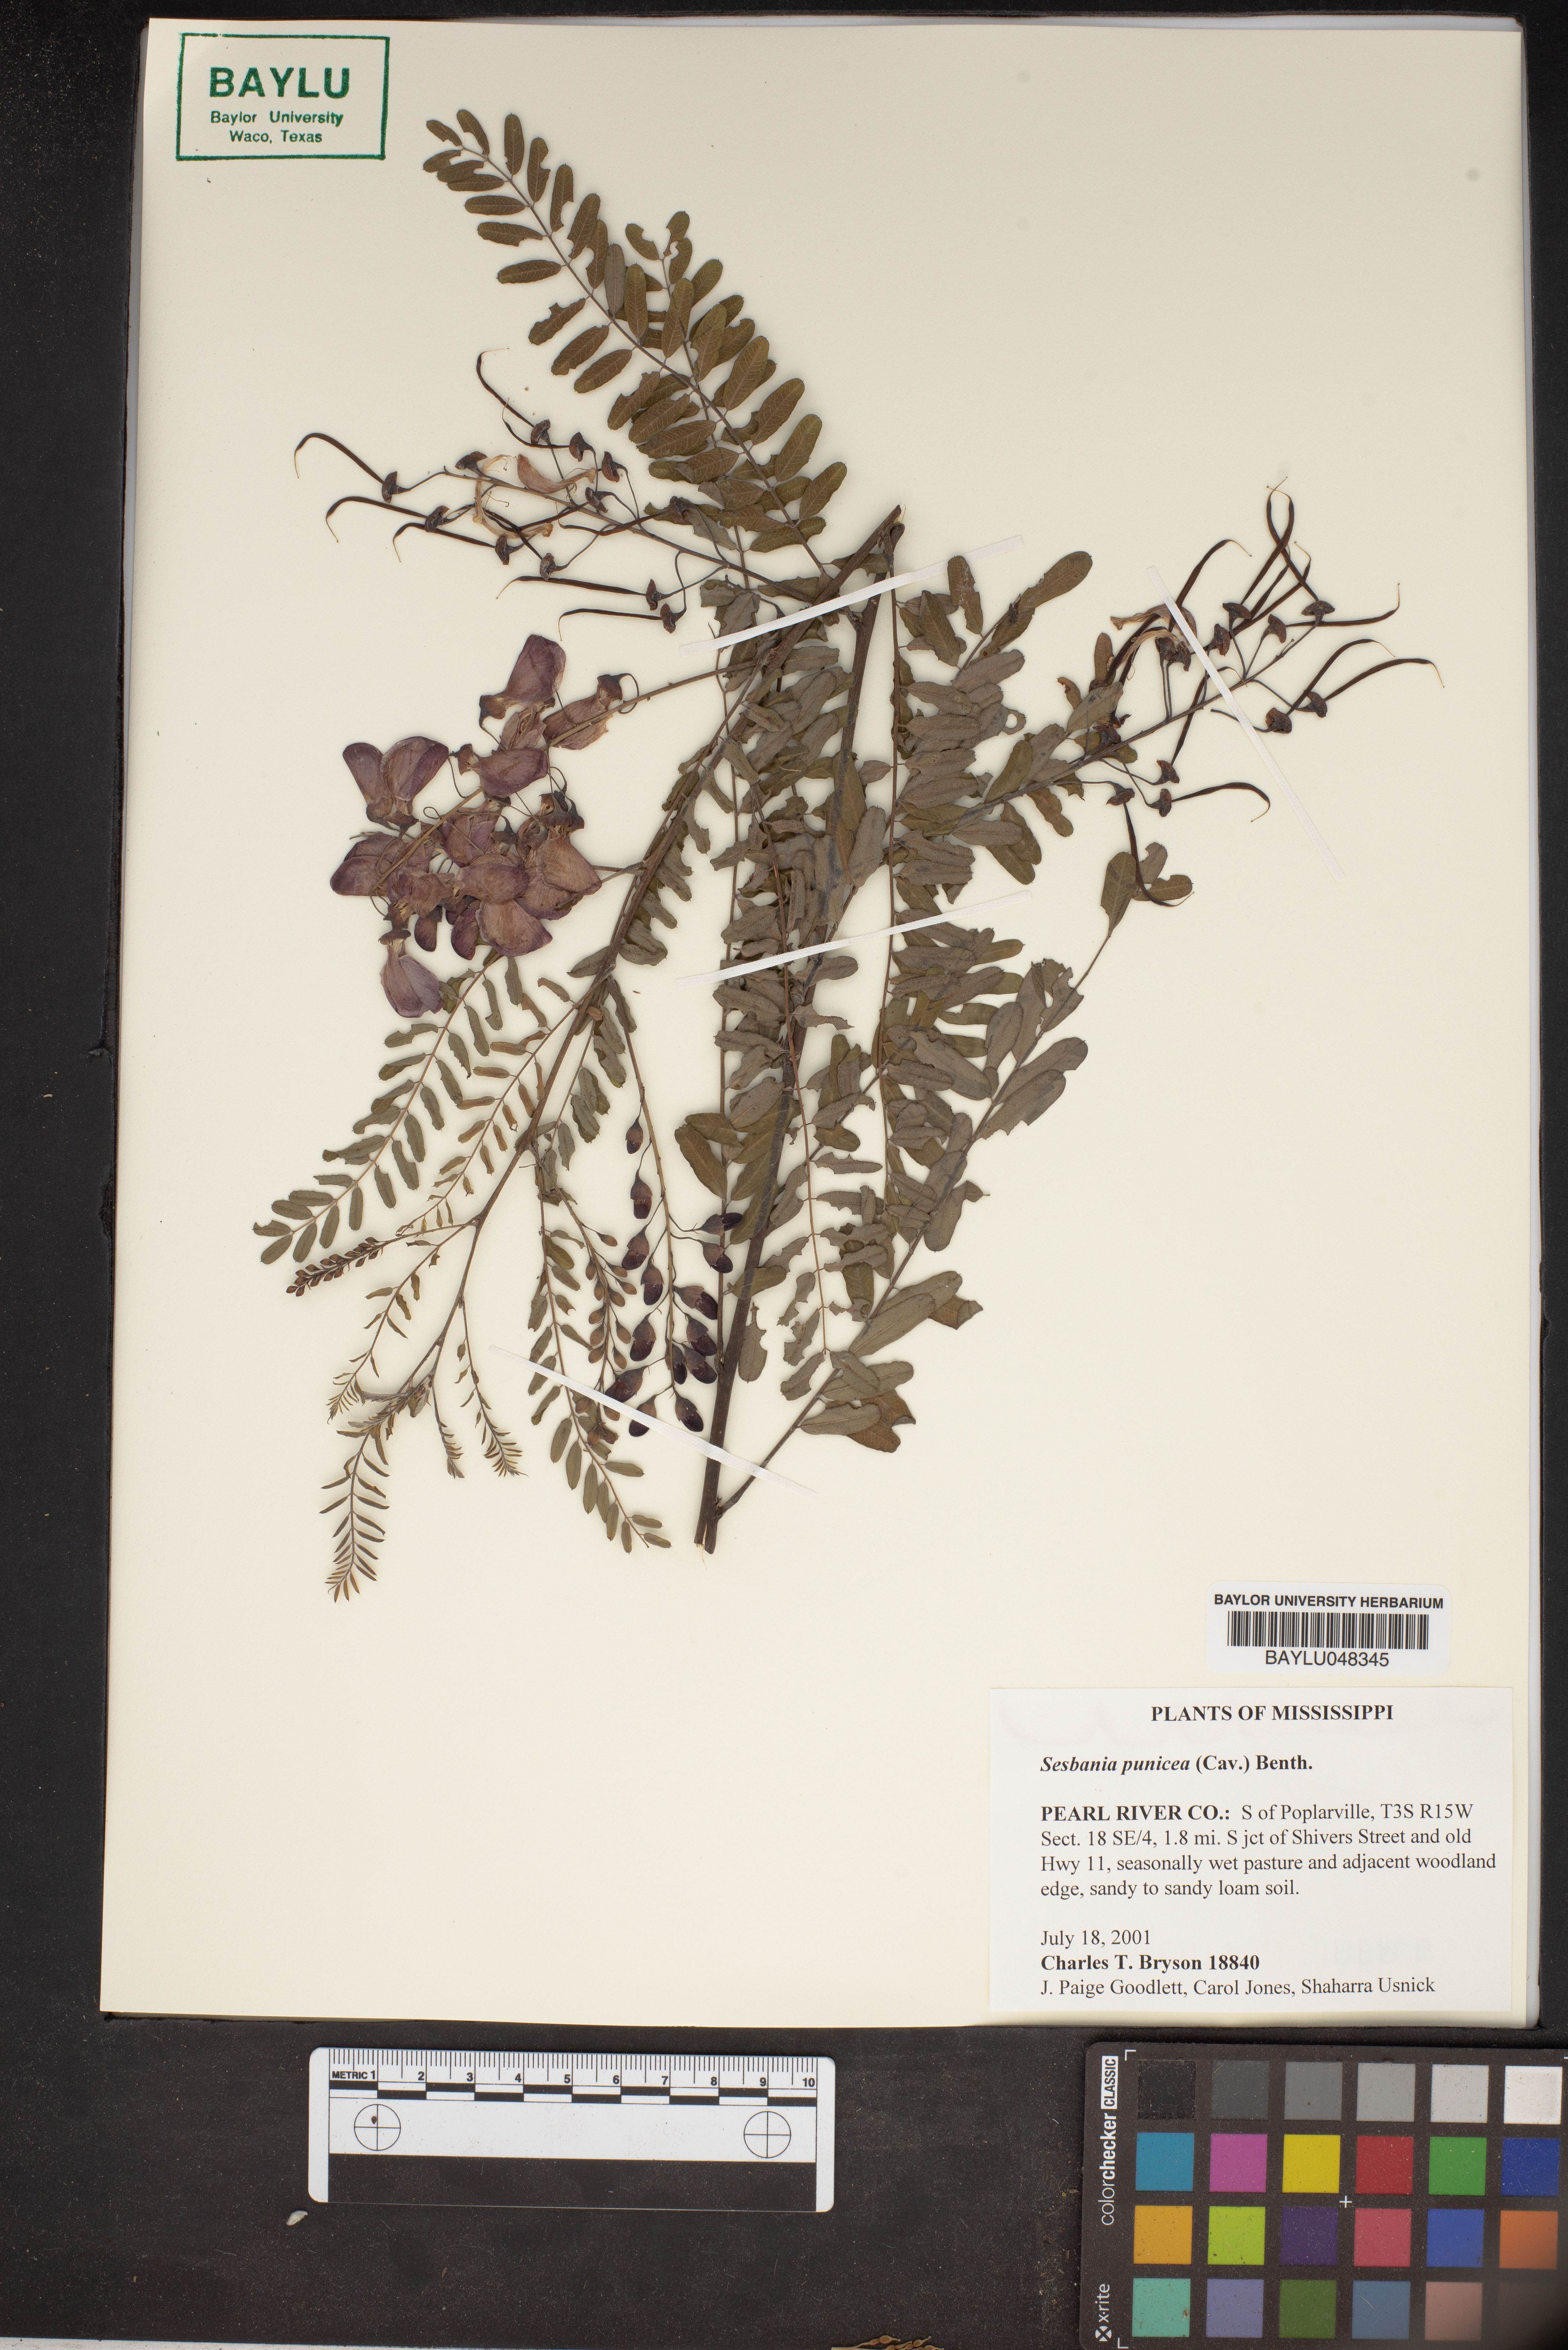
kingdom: Plantae
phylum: Tracheophyta
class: Magnoliopsida
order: Fabales
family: Fabaceae
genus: Sesbania
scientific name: Sesbania punicea
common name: Rattlebox
